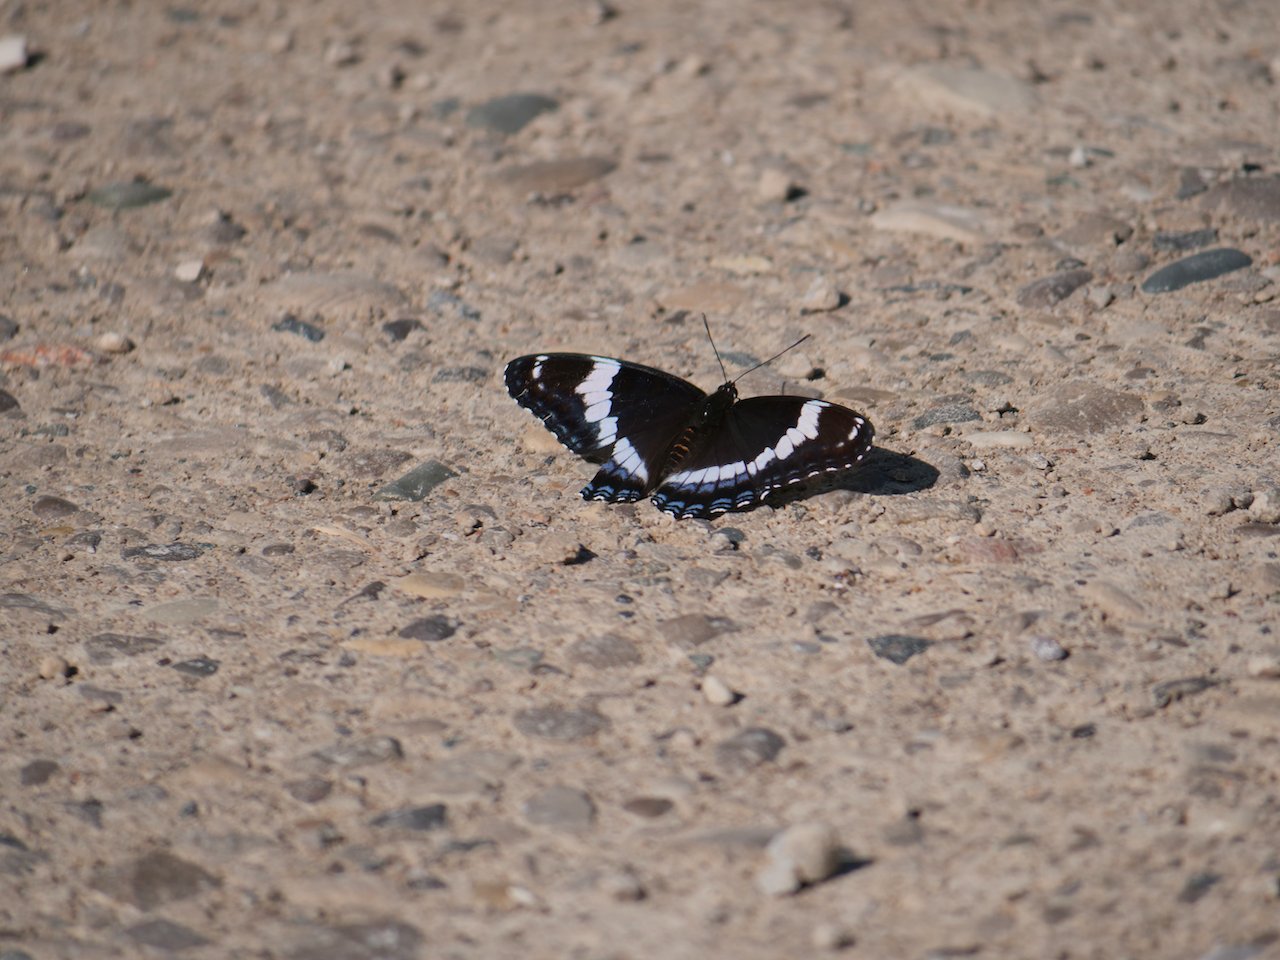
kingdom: Animalia
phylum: Arthropoda
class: Insecta
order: Lepidoptera
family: Nymphalidae
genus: Limenitis
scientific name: Limenitis arthemis
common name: Red-spotted Admiral
